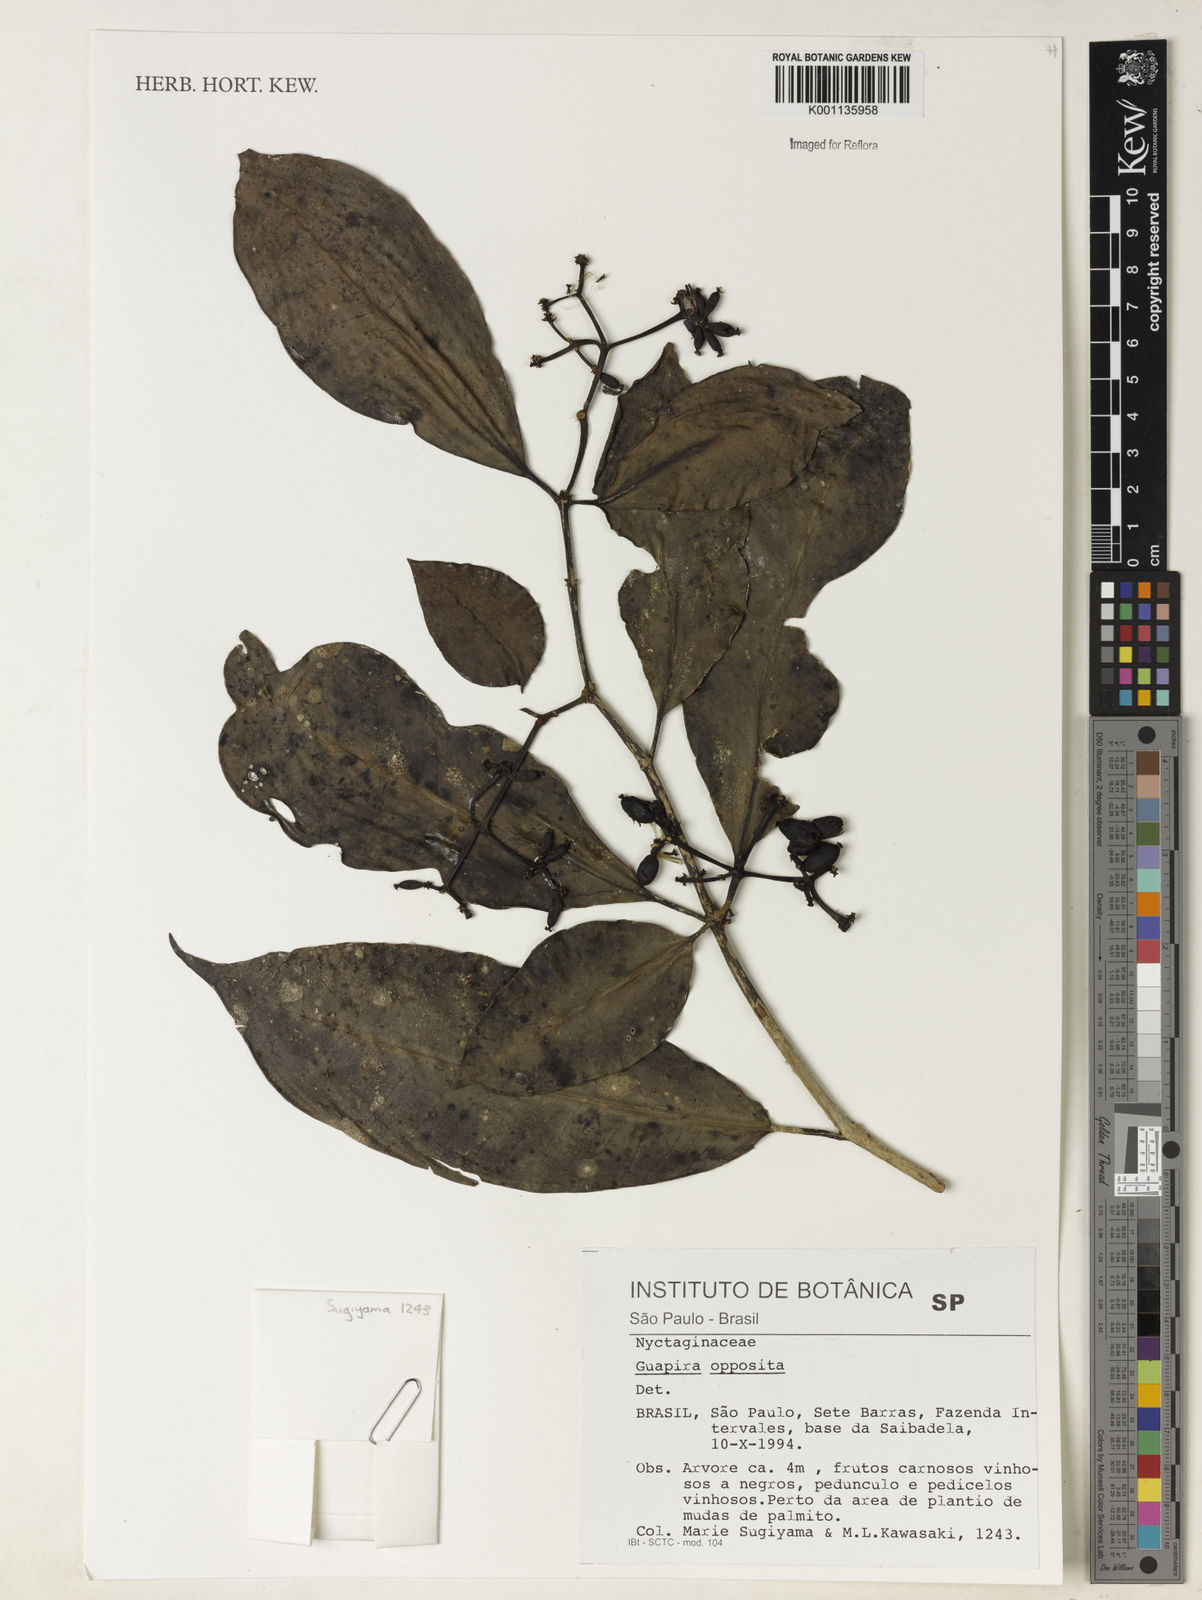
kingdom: Plantae
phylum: Tracheophyta
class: Magnoliopsida
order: Caryophyllales
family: Nyctaginaceae
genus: Guapira
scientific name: Guapira opposita
